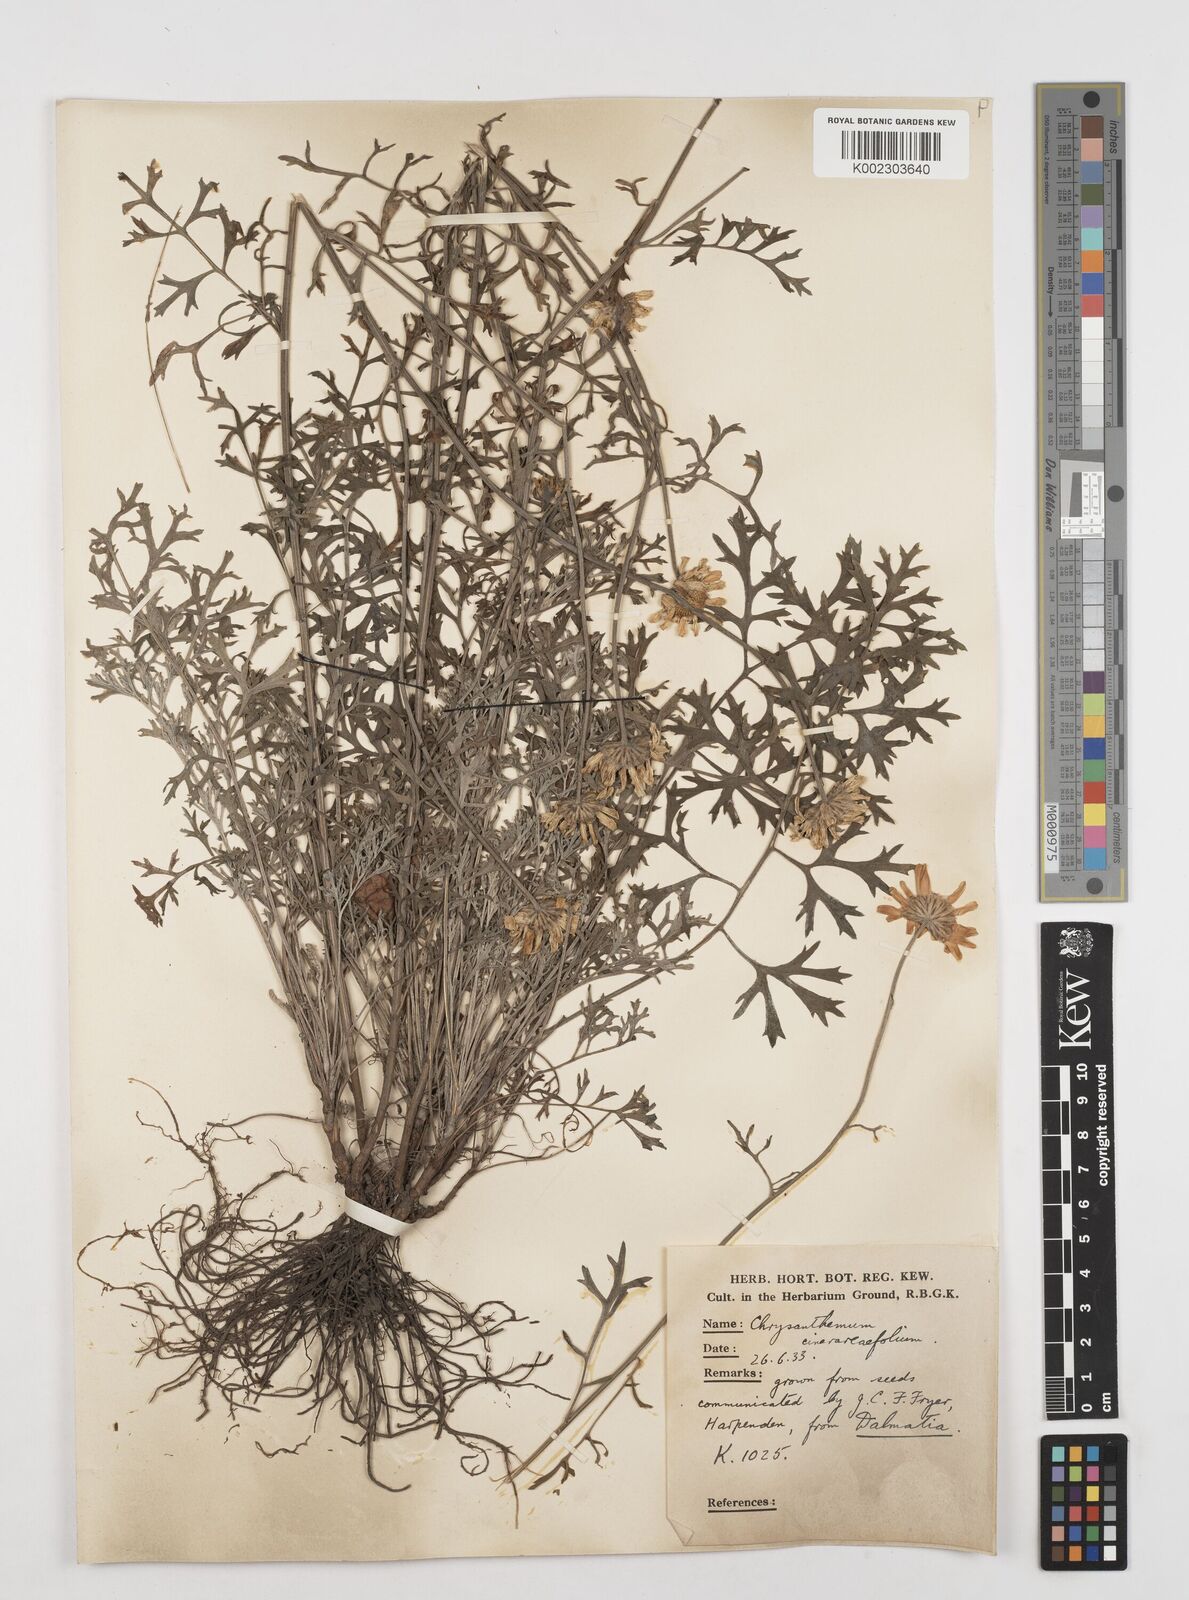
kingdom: Plantae
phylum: Tracheophyta
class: Magnoliopsida
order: Asterales
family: Asteraceae
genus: Tanacetum
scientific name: Tanacetum cinerariifolium
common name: Dalmatian pyrethrum
